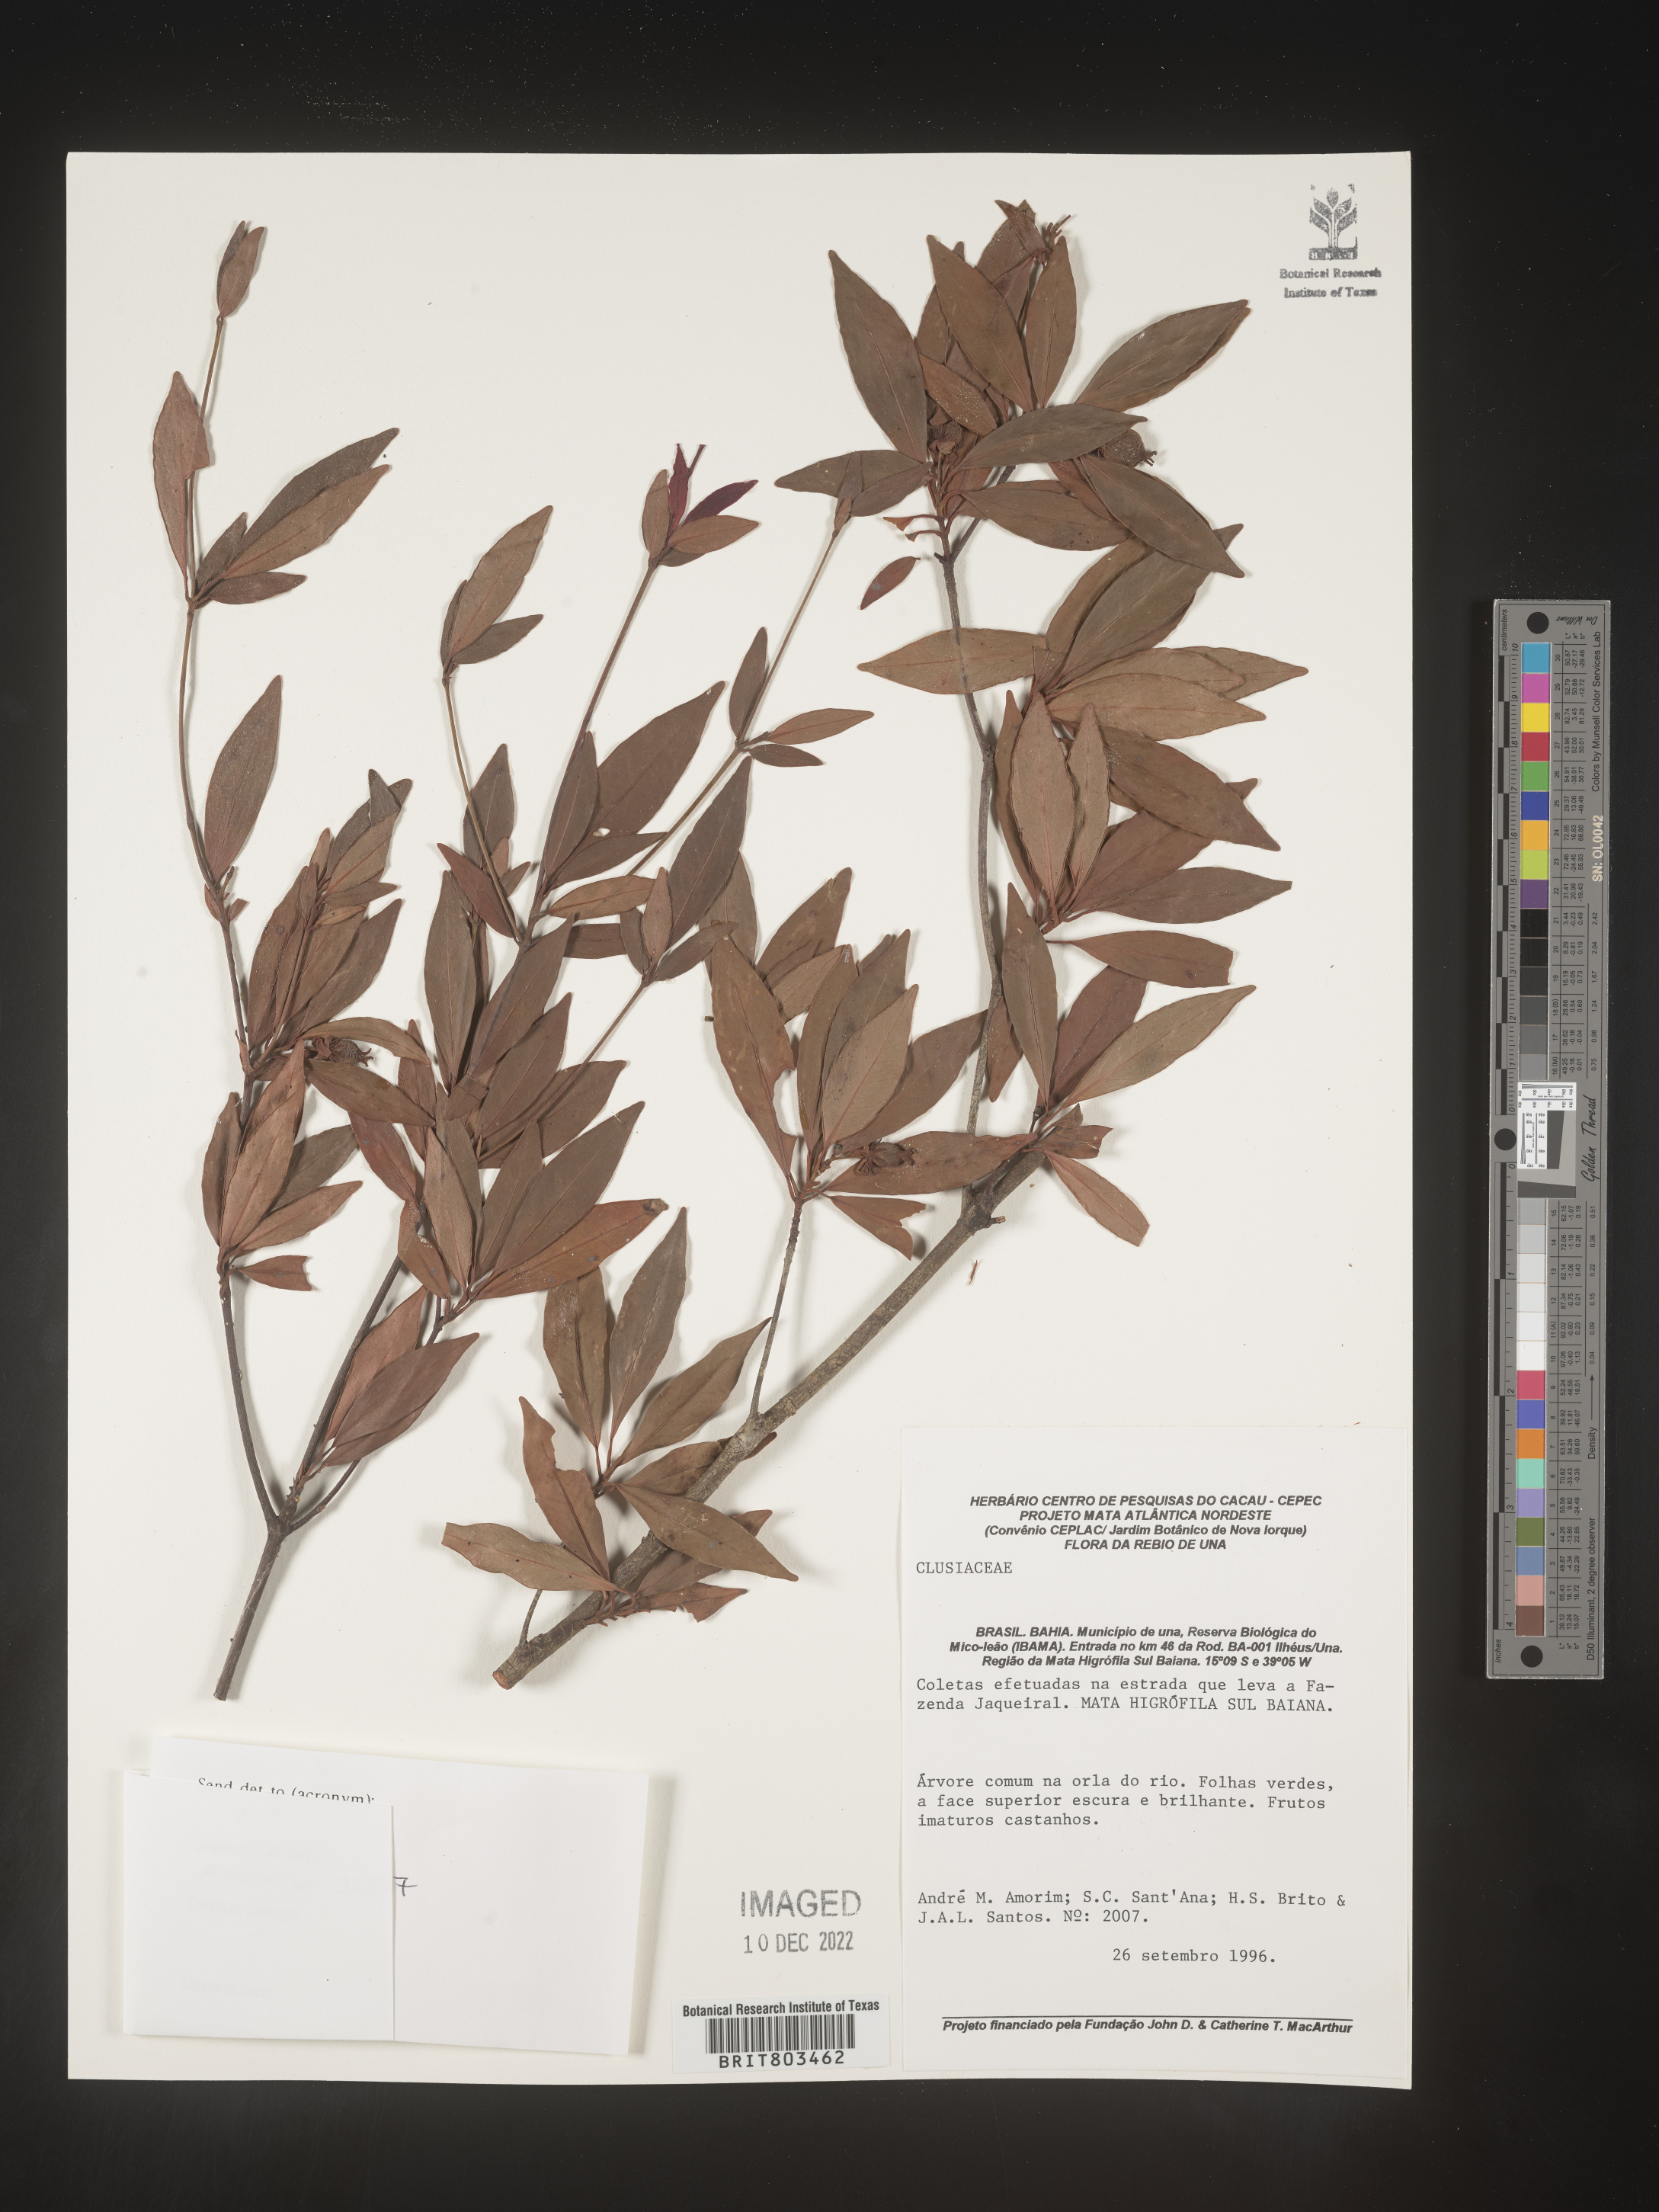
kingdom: Plantae
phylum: Tracheophyta
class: Magnoliopsida
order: Malpighiales
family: Clusiaceae
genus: Tovomita
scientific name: Tovomita
